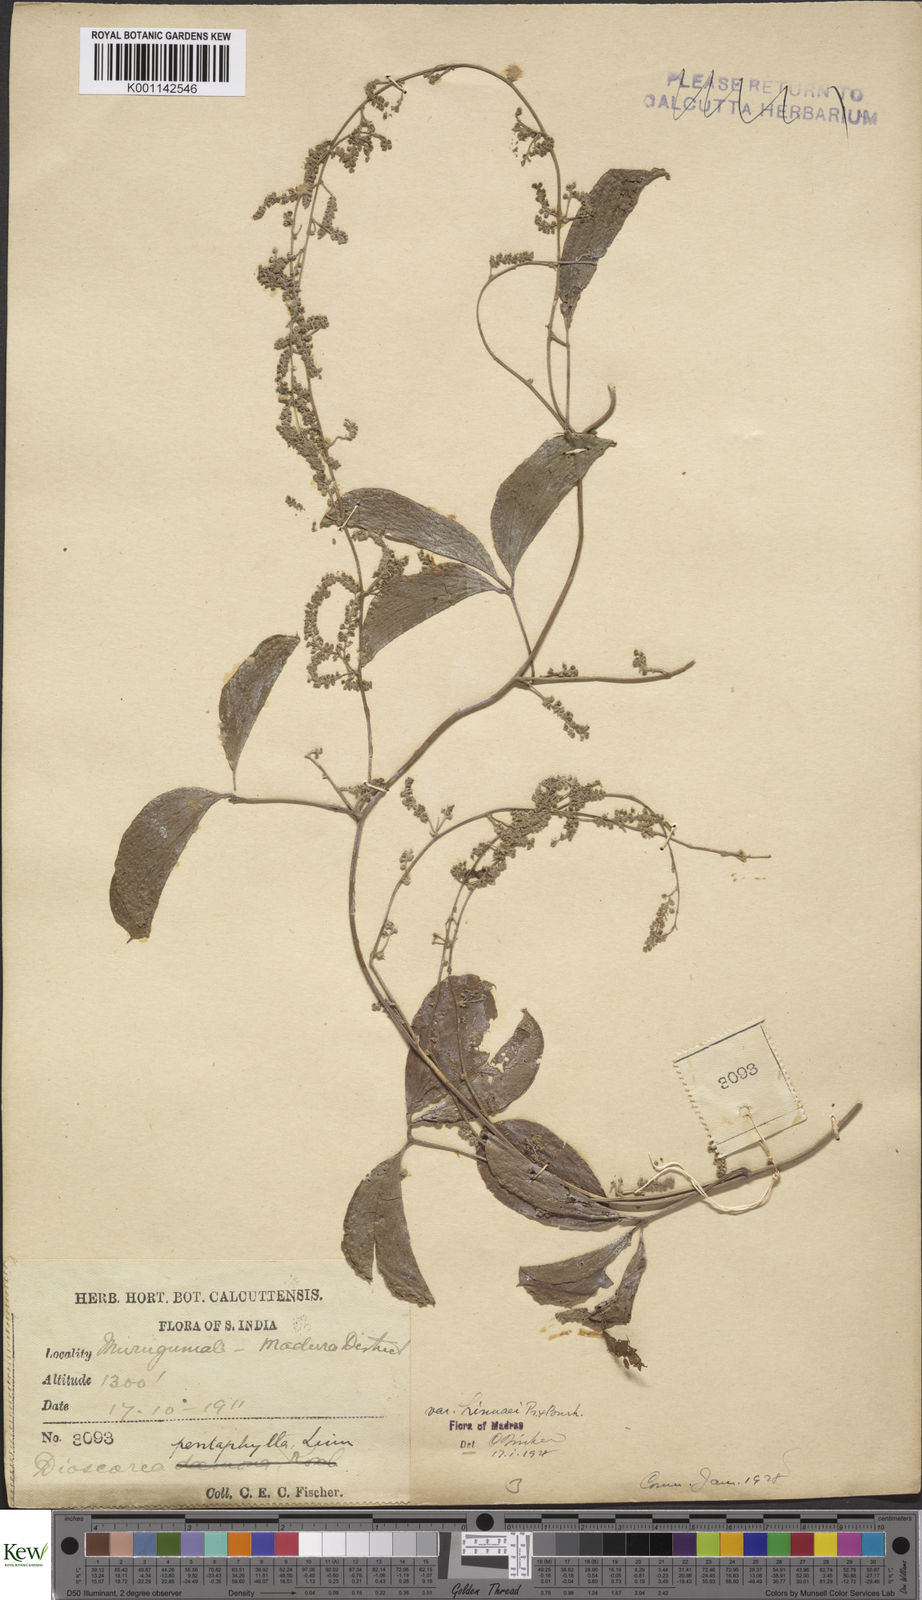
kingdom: Plantae
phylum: Tracheophyta
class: Liliopsida
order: Dioscoreales
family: Dioscoreaceae
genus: Dioscorea
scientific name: Dioscorea pentaphylla
